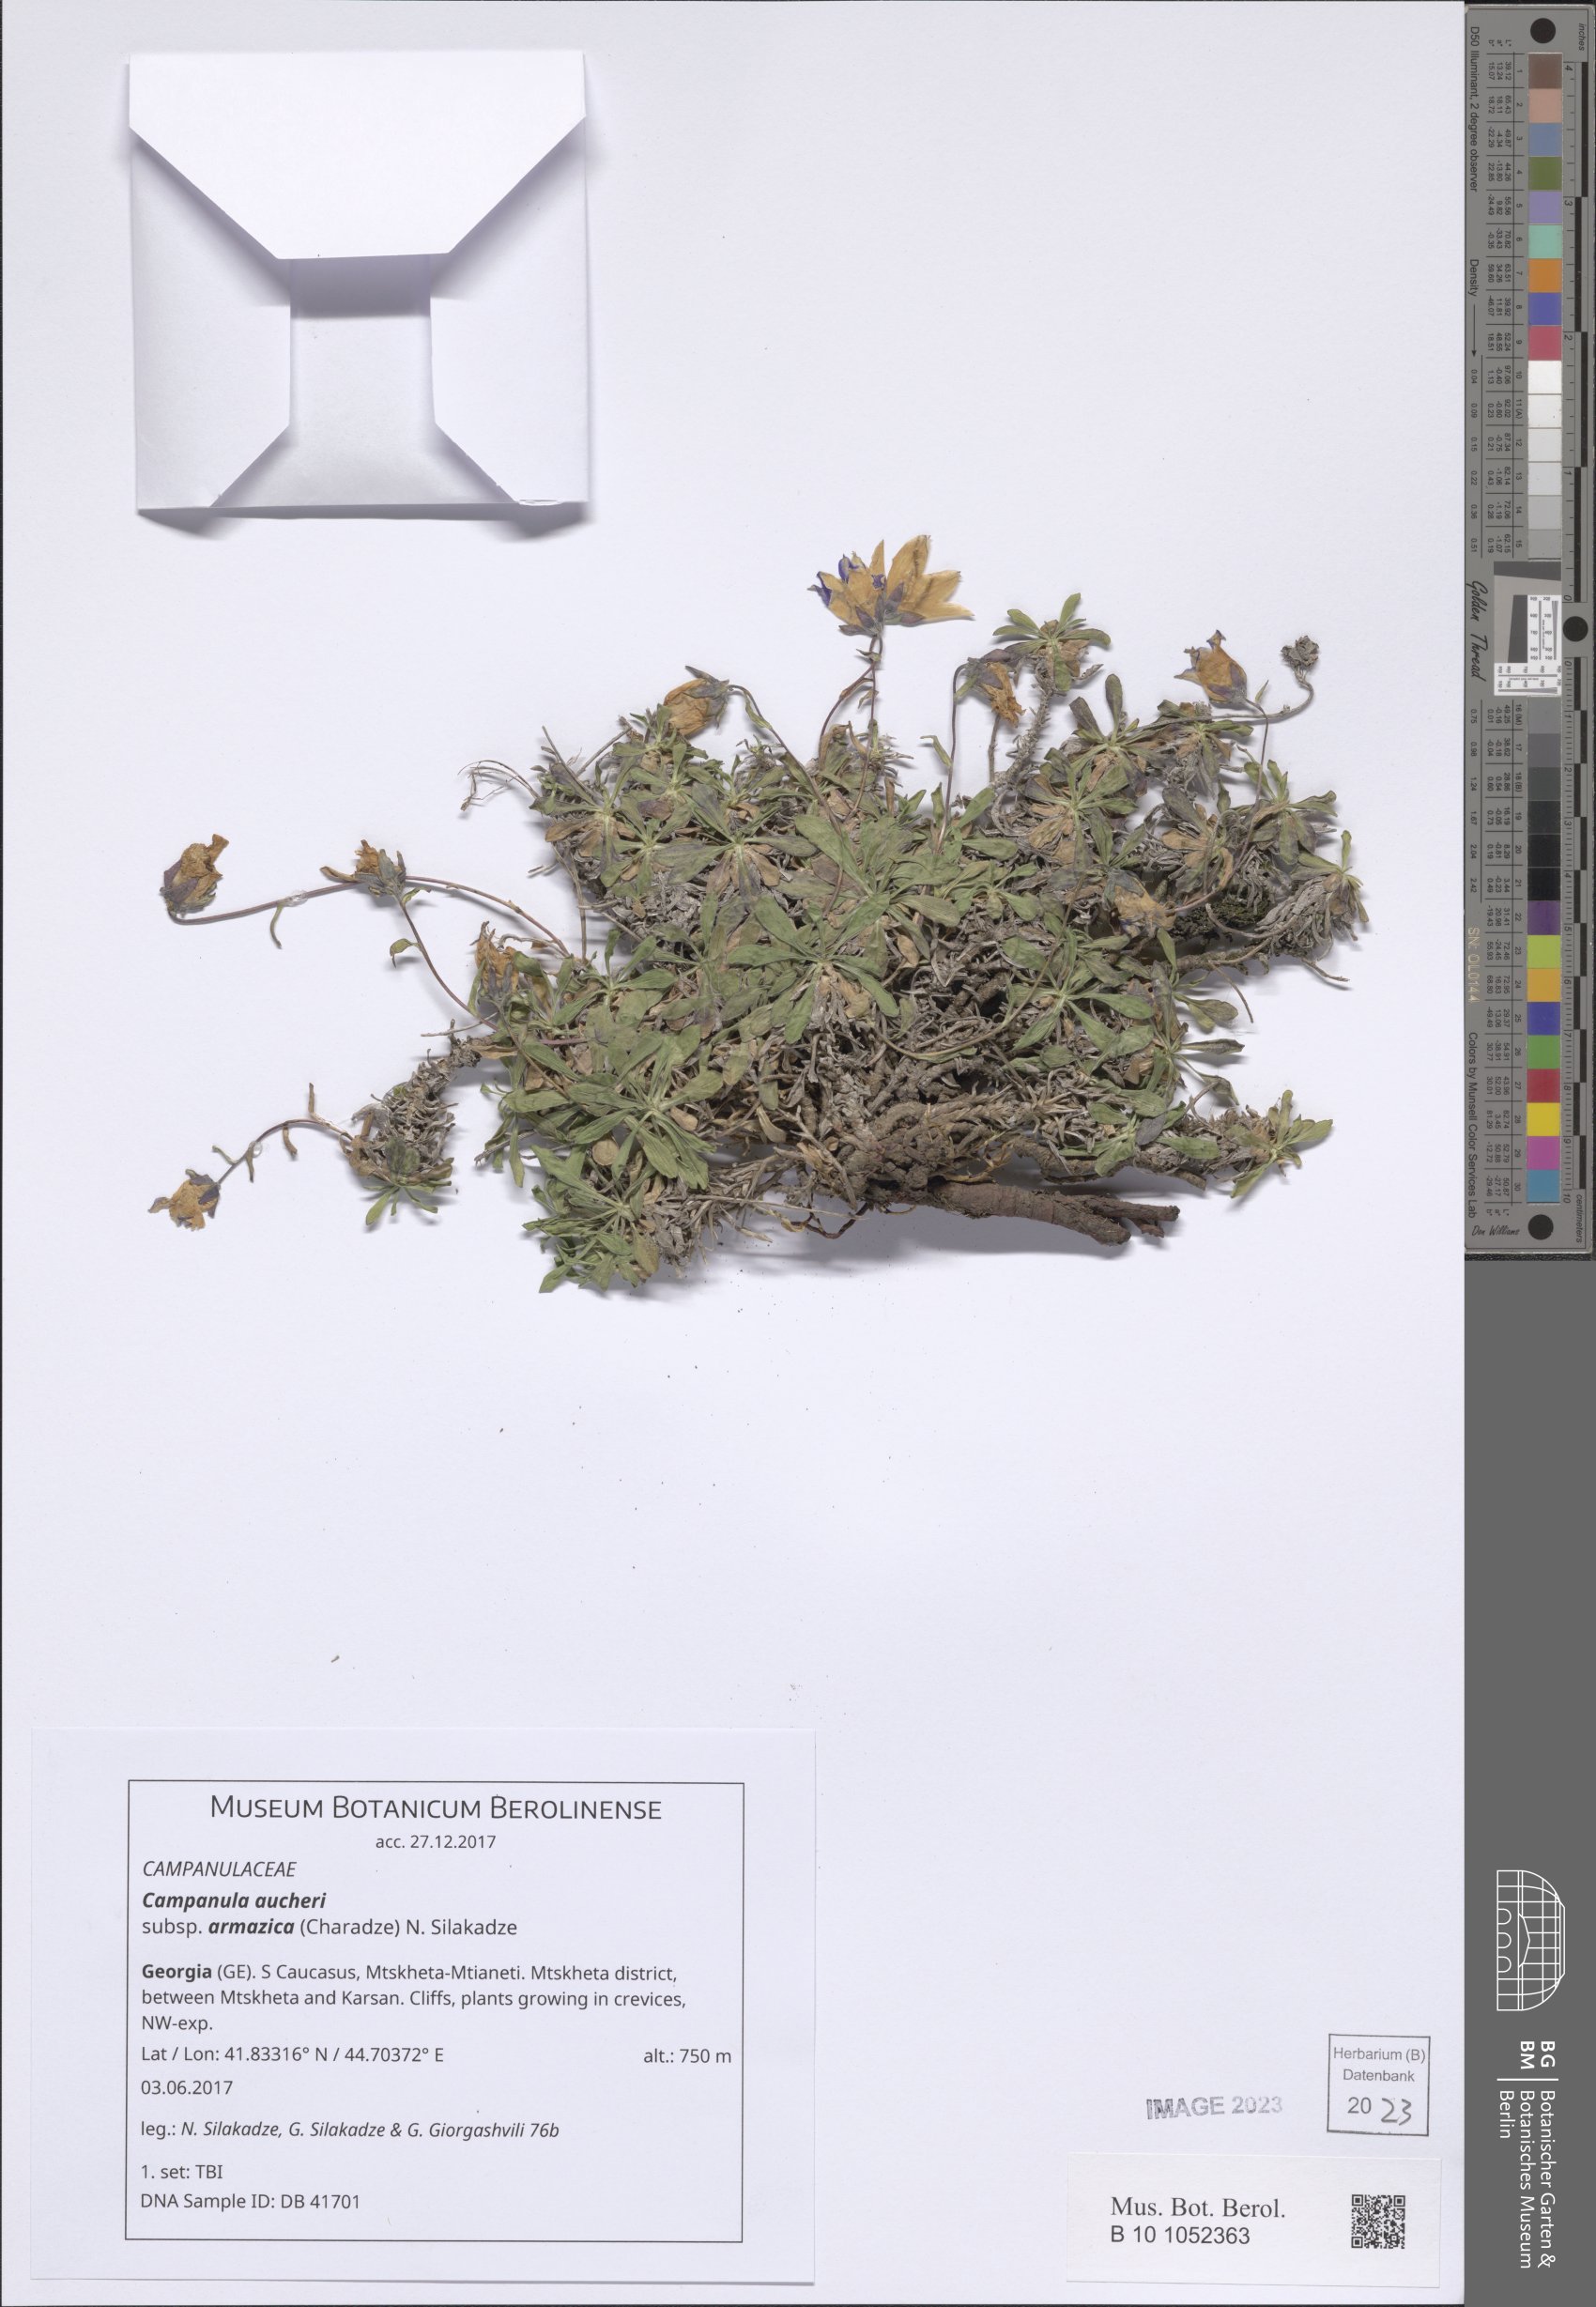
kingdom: Plantae
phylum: Tracheophyta
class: Magnoliopsida
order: Asterales
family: Campanulaceae
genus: Campanula
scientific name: Campanula saxifraga
